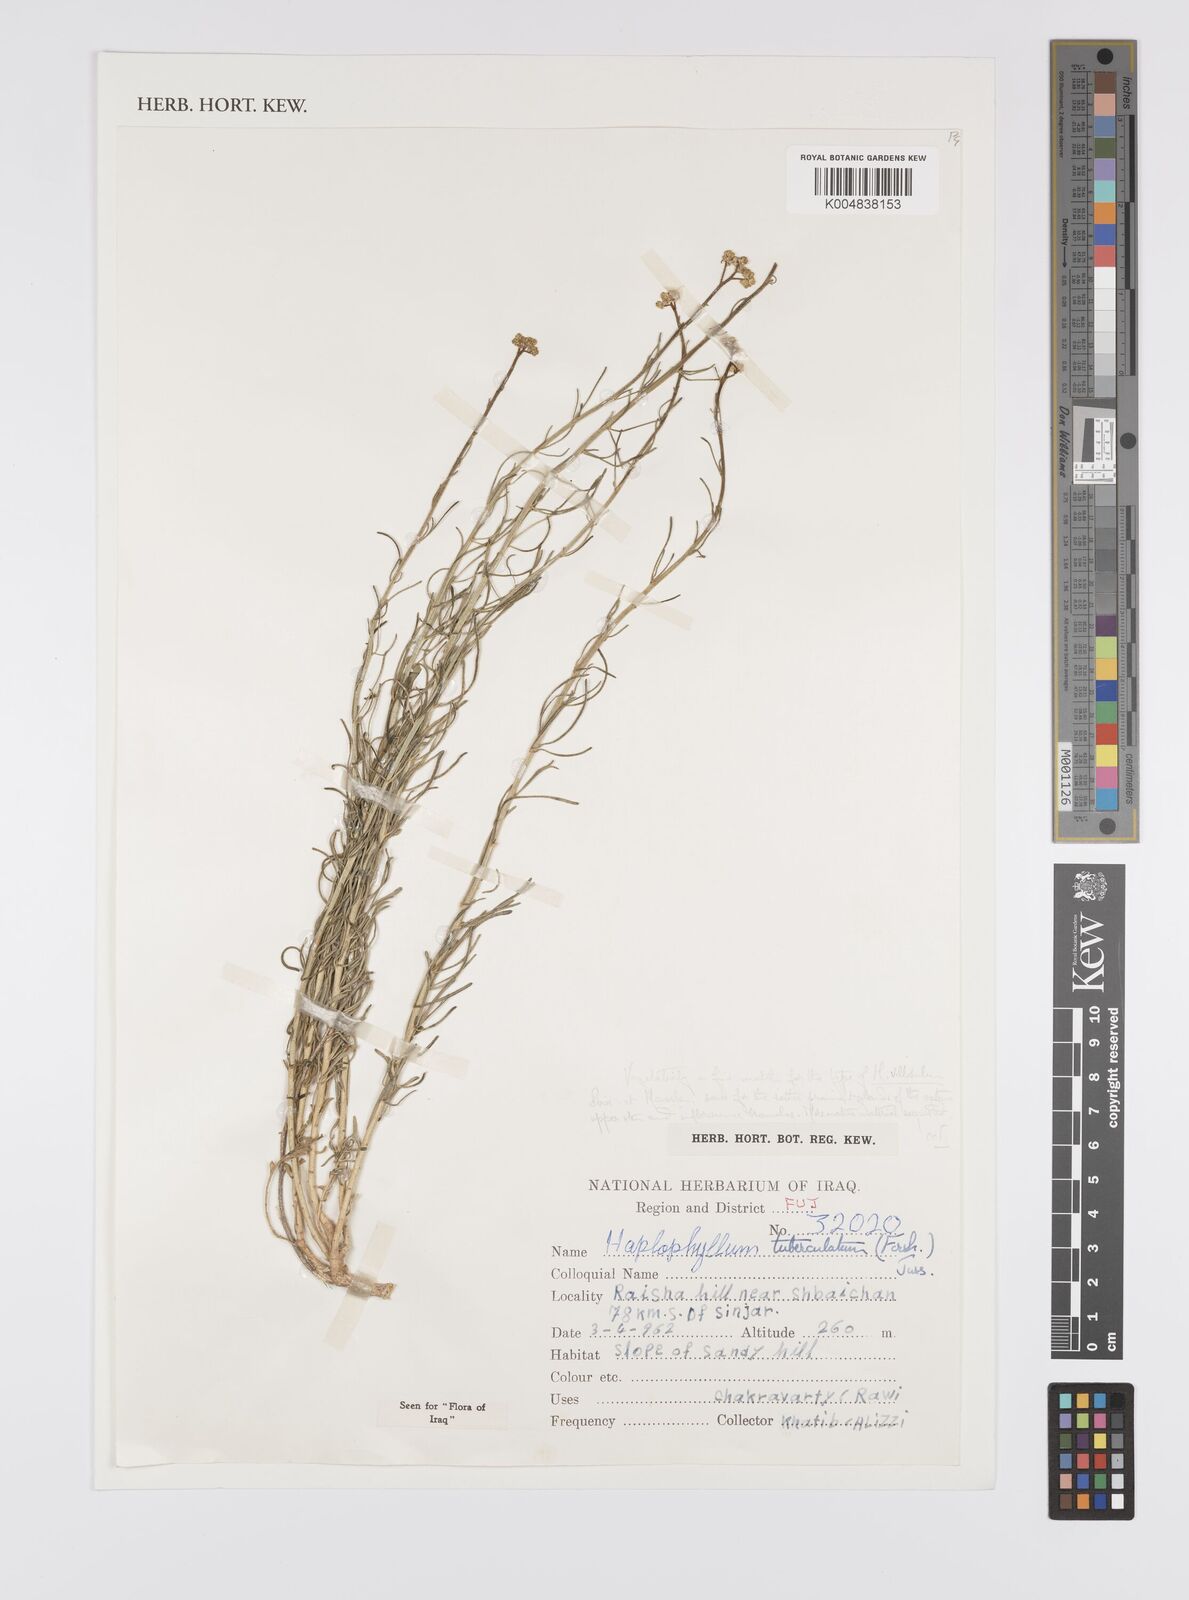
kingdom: Plantae
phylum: Tracheophyta
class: Magnoliopsida
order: Sapindales
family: Rutaceae
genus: Haplophyllum
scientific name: Haplophyllum tuberculatum
